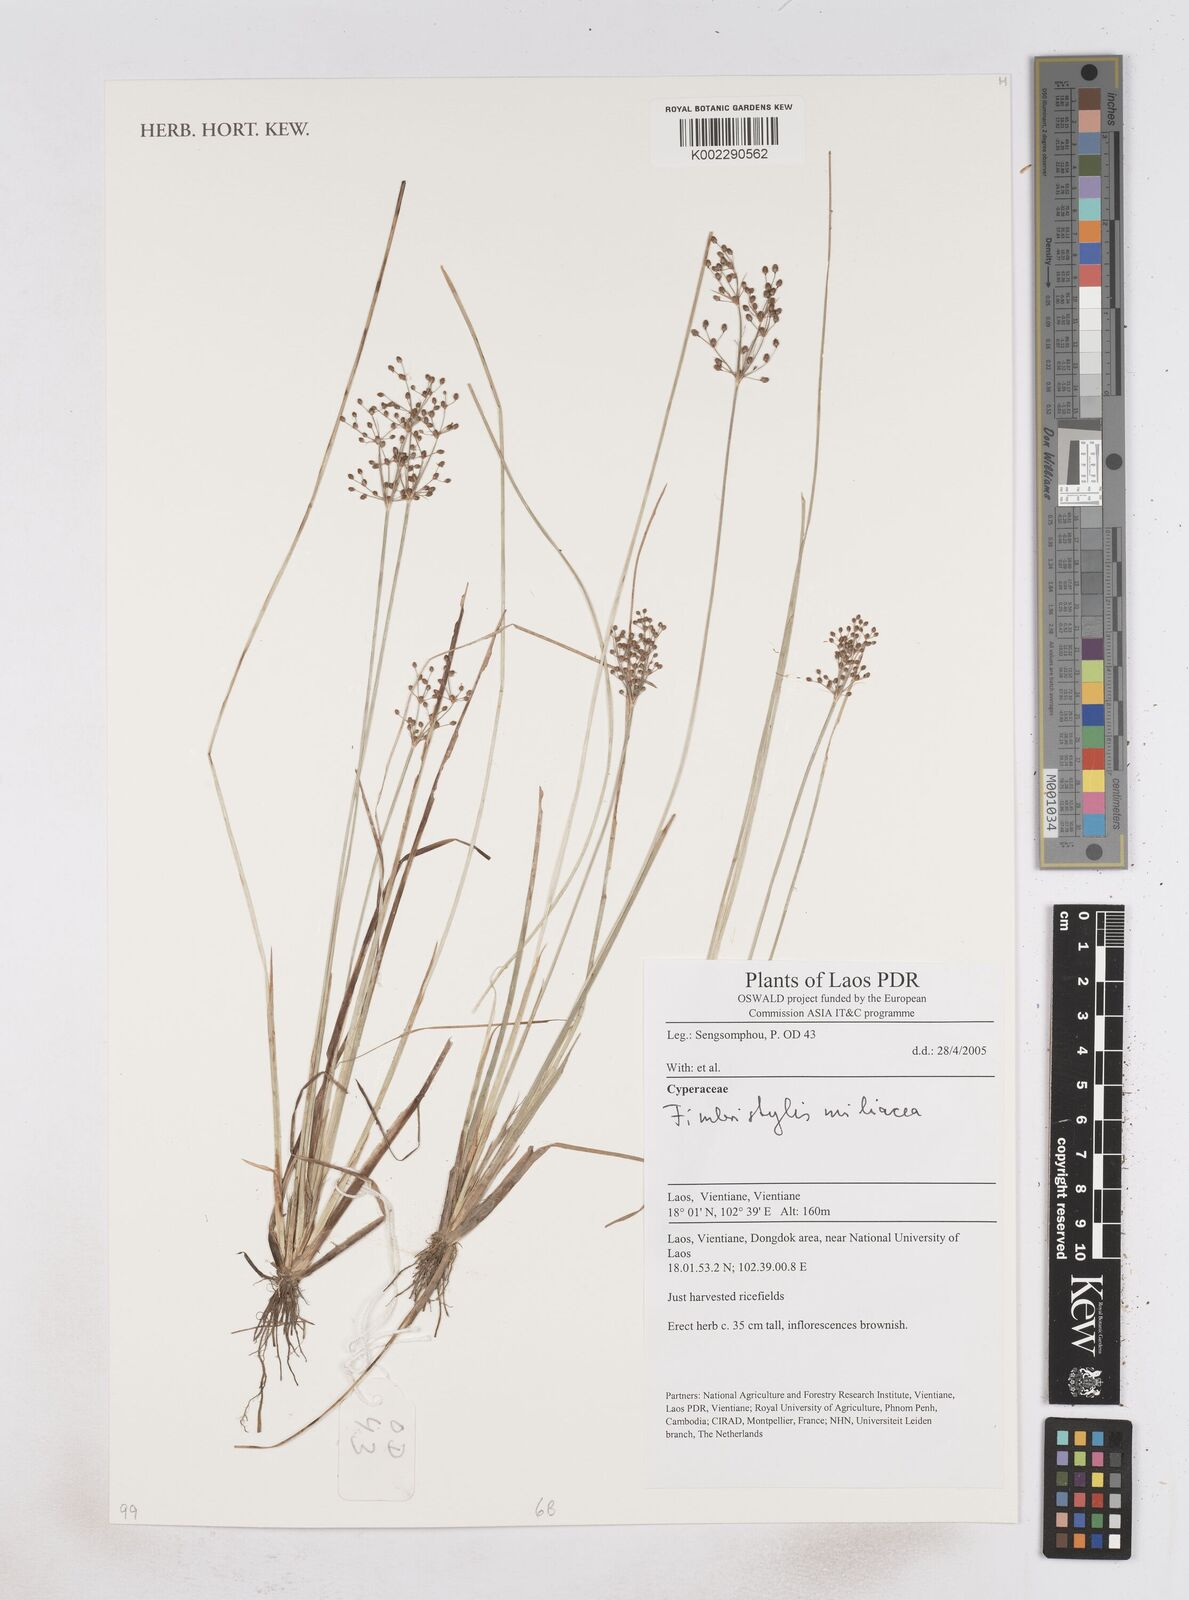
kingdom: Plantae
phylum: Tracheophyta
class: Liliopsida
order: Poales
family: Cyperaceae
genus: Fimbristylis
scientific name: Fimbristylis quinquangularis
